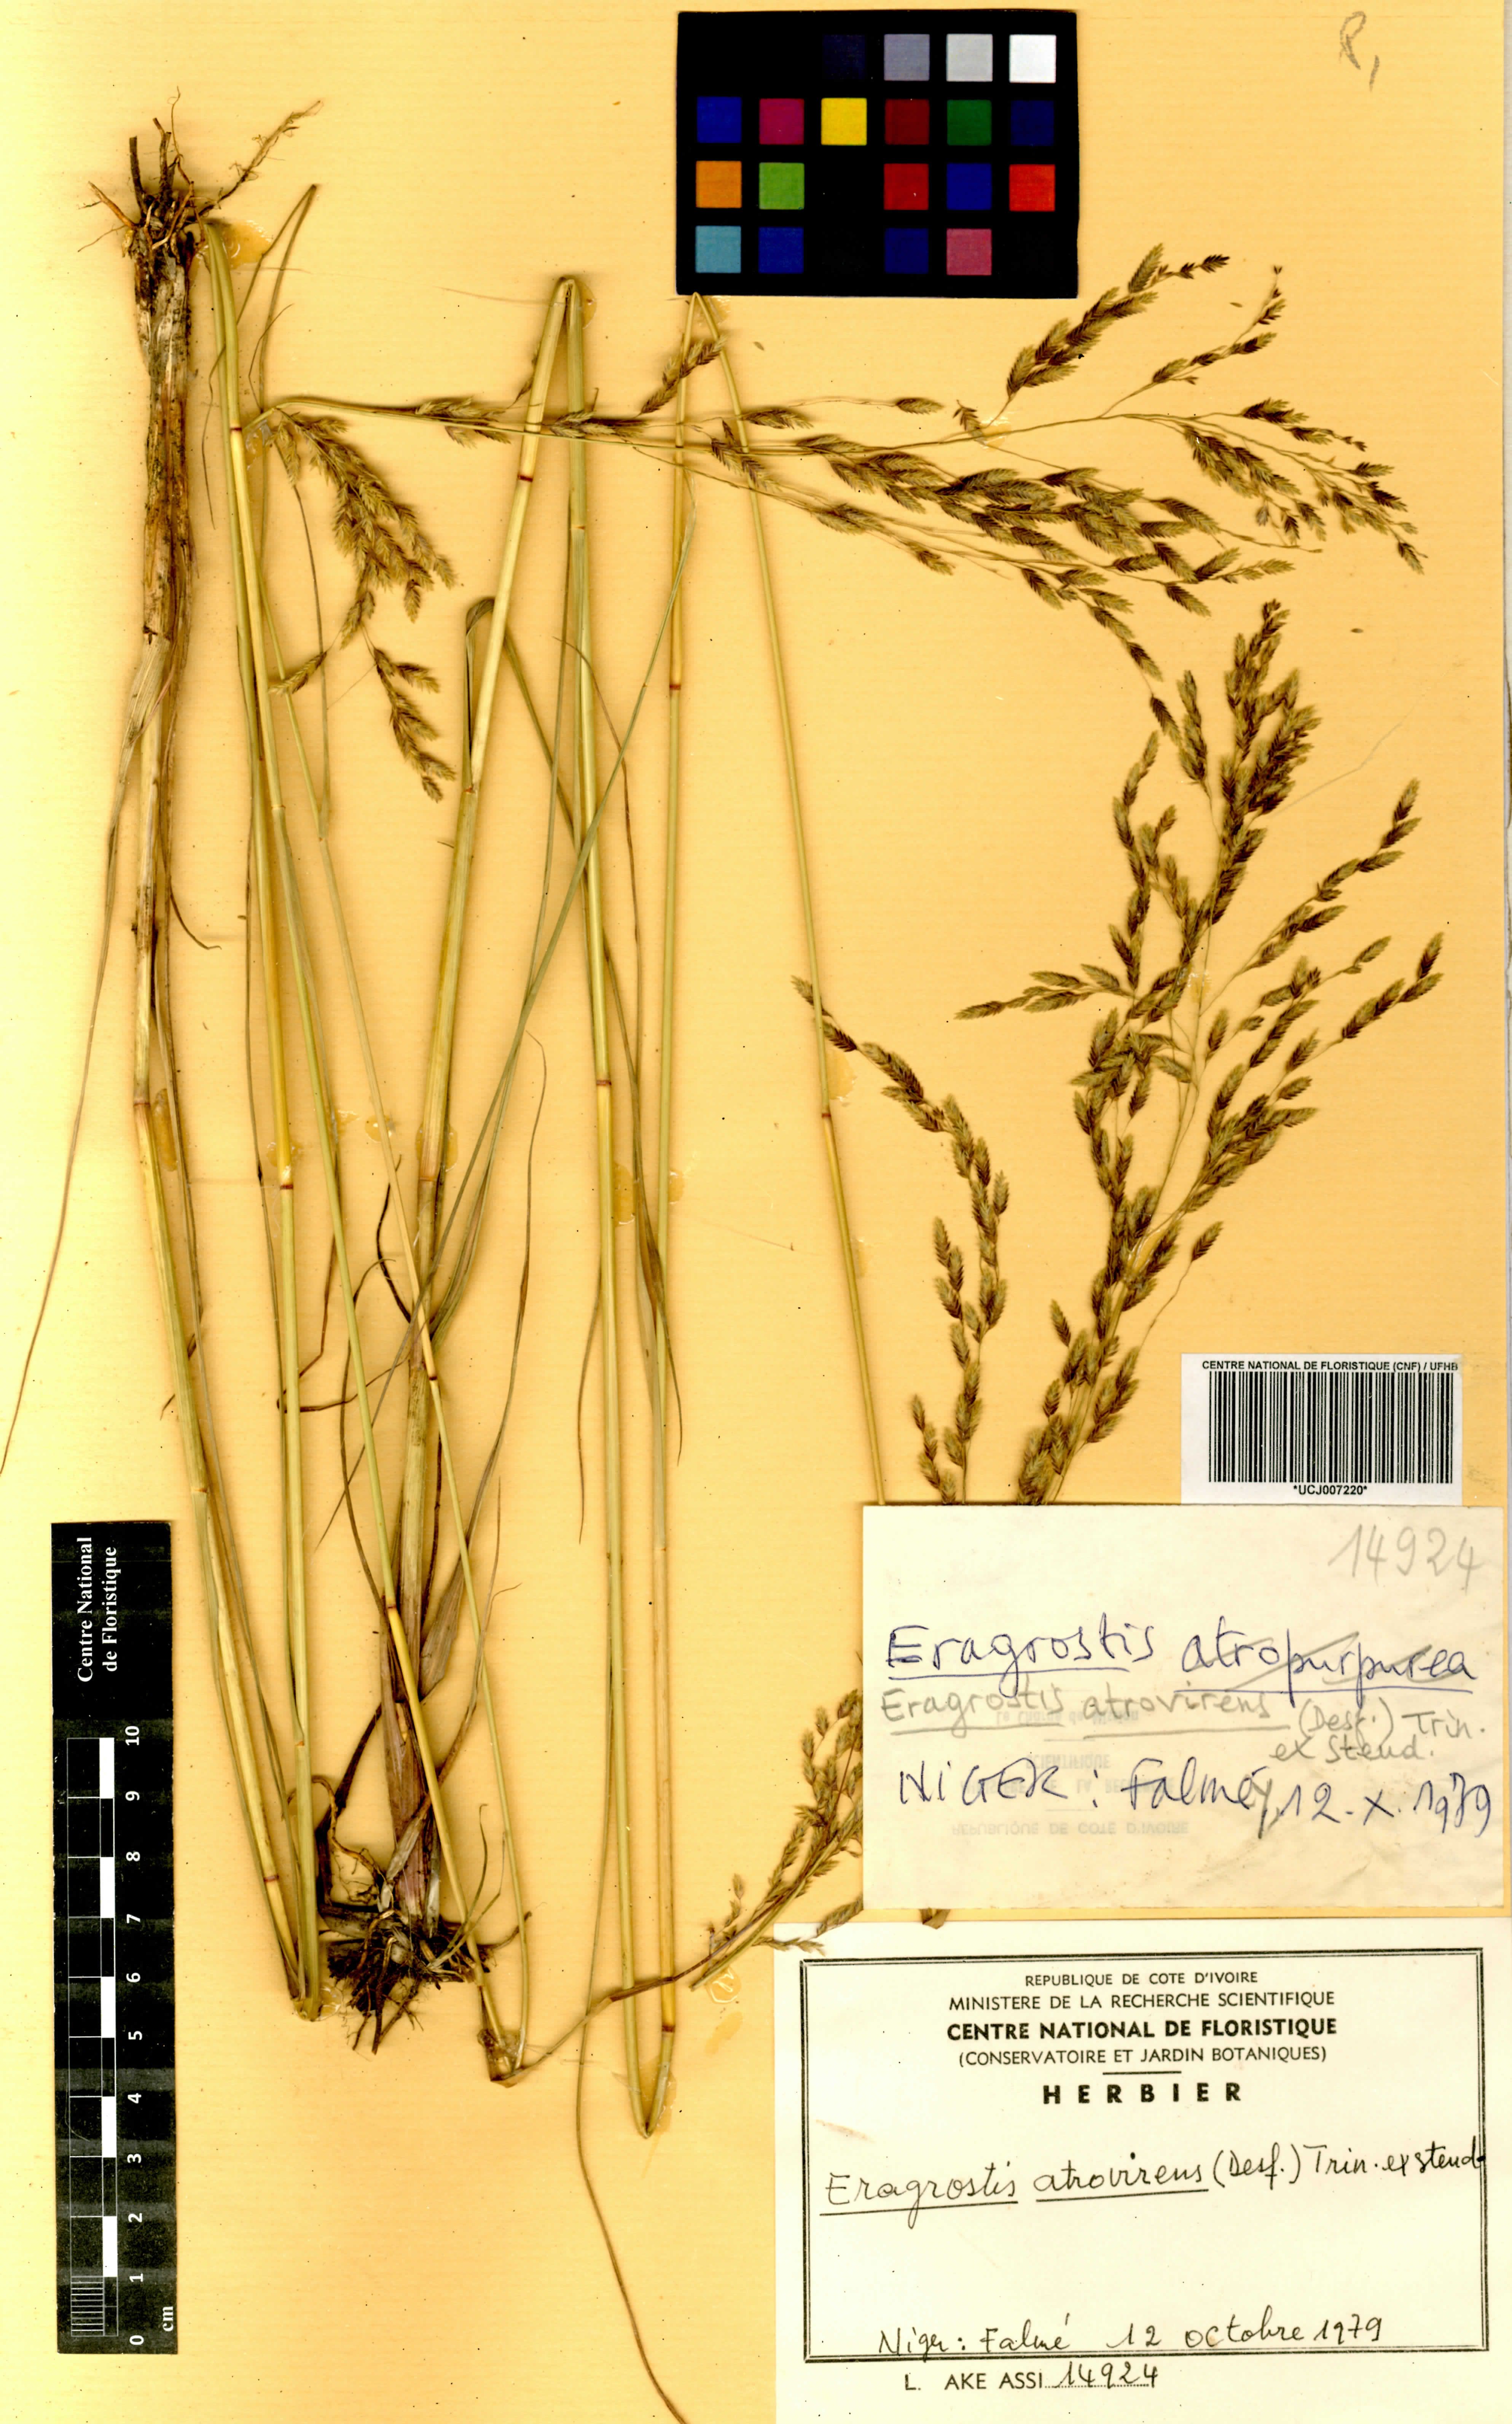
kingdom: Plantae
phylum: Tracheophyta
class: Liliopsida
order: Poales
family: Poaceae
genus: Eragrostis
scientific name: Eragrostis atrovirens
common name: Thalia lovegrass
